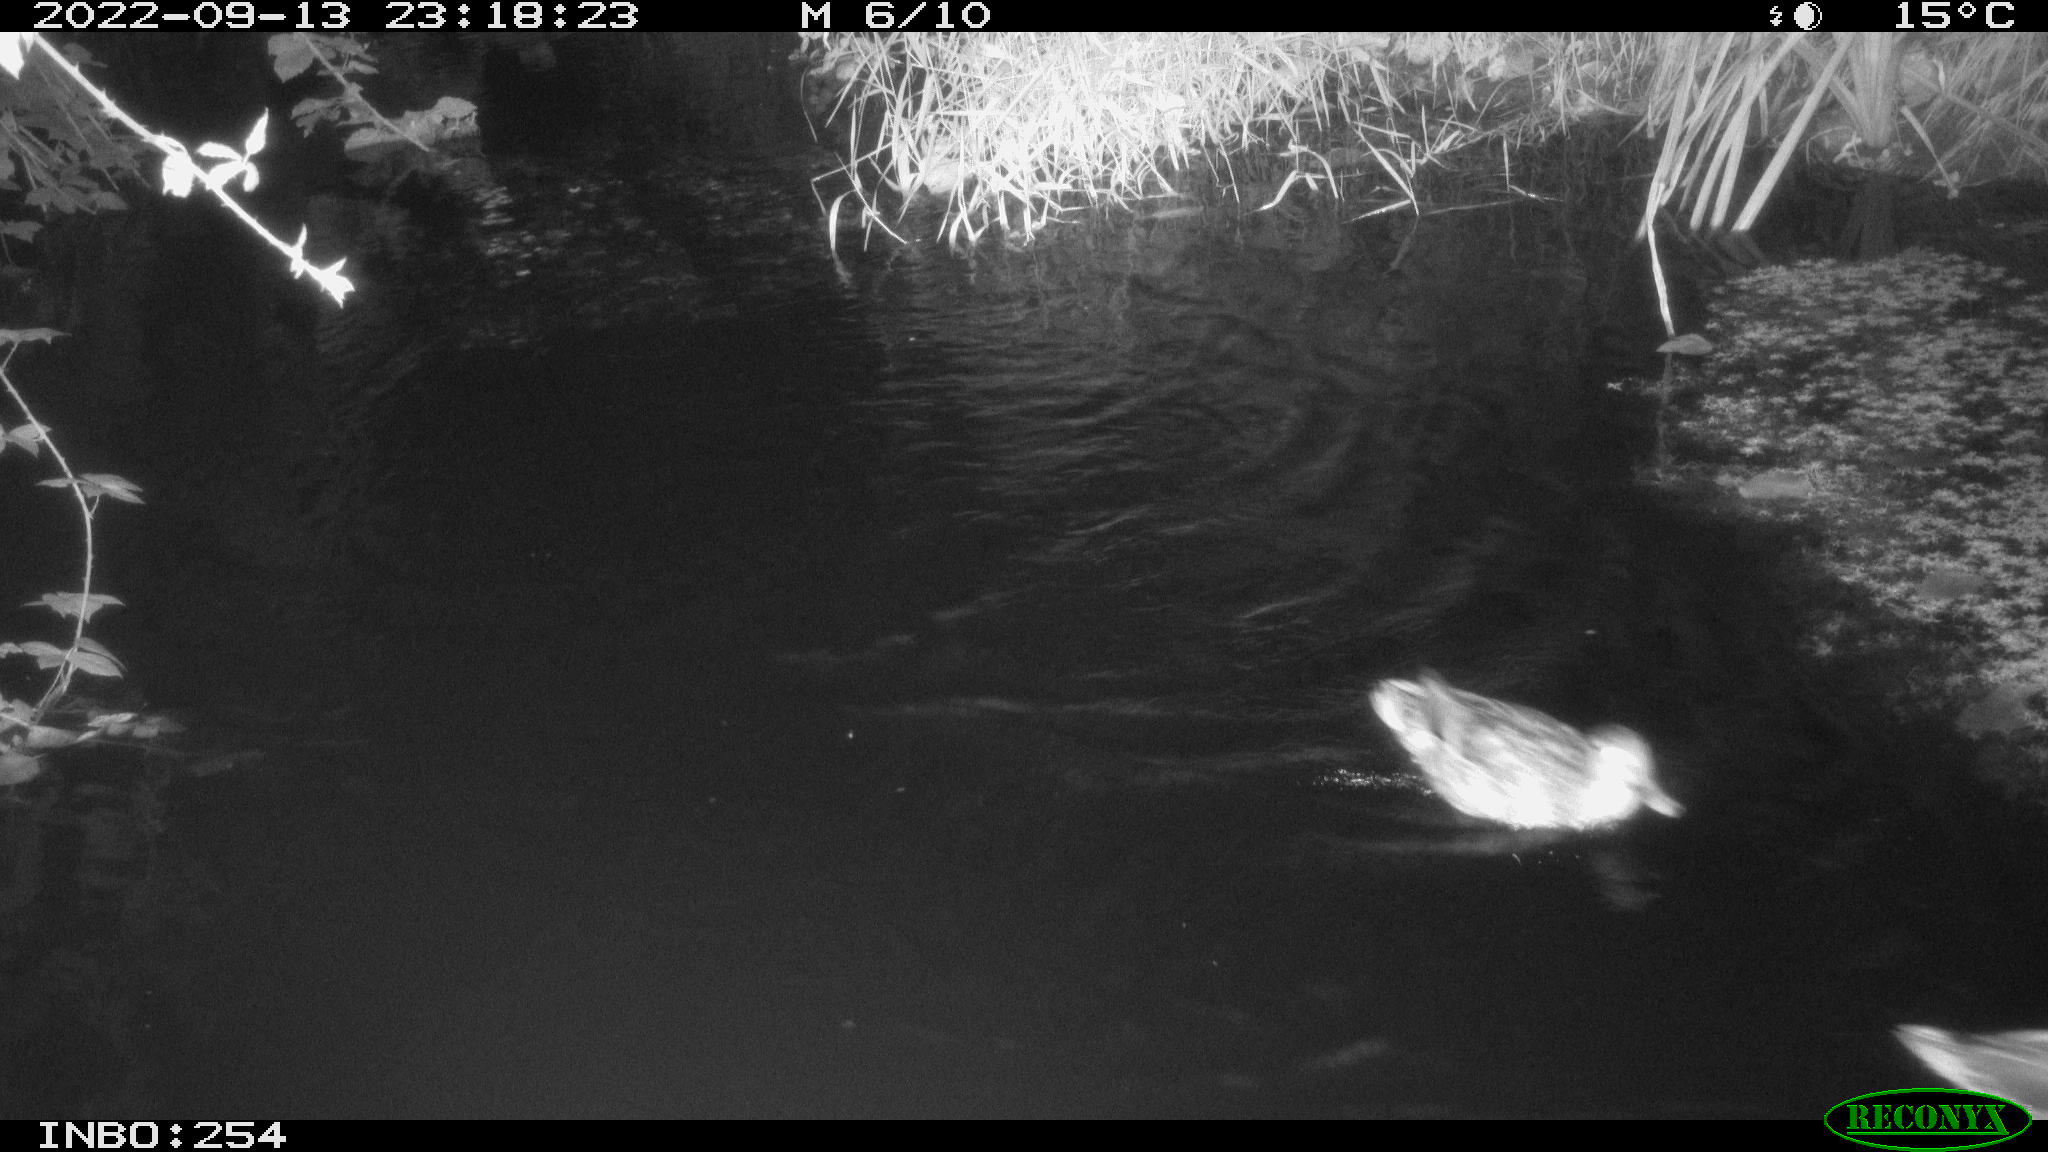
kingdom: Animalia
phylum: Chordata
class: Aves
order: Anseriformes
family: Anatidae
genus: Anas
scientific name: Anas
